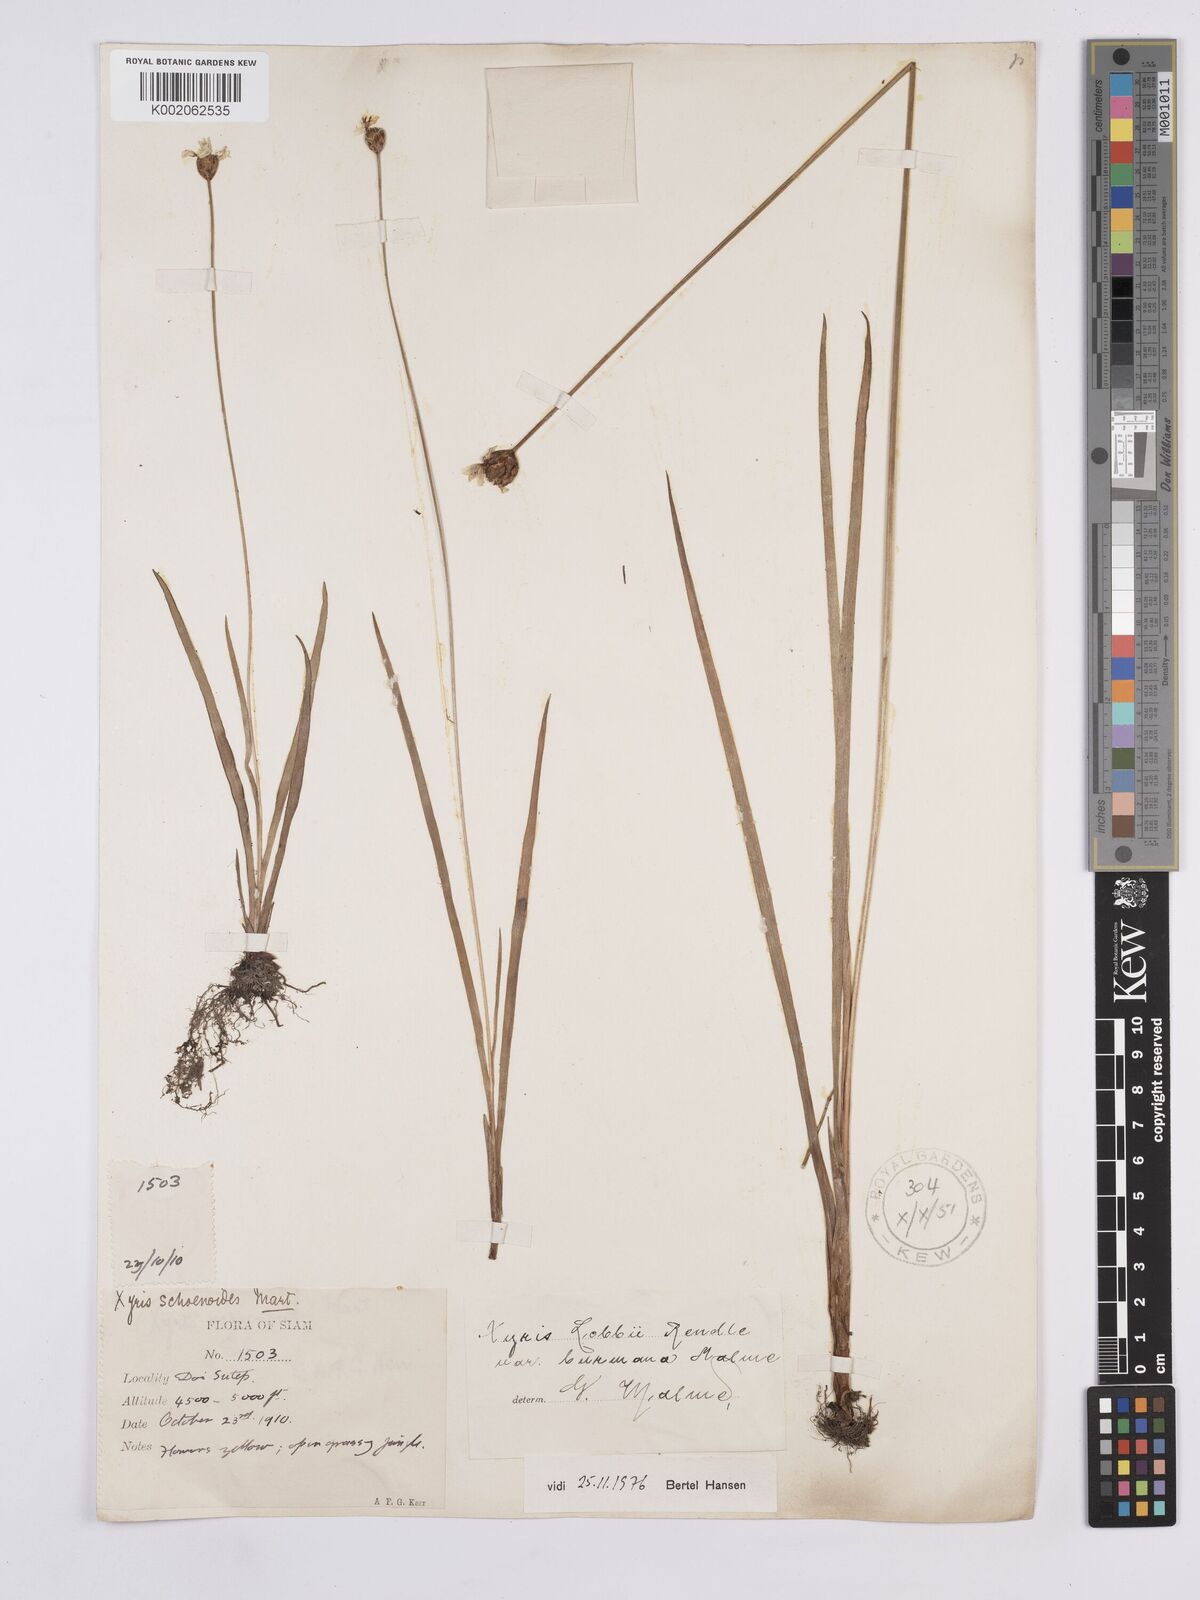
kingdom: Plantae
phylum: Tracheophyta
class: Liliopsida
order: Poales
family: Xyridaceae
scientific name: Xyridaceae
